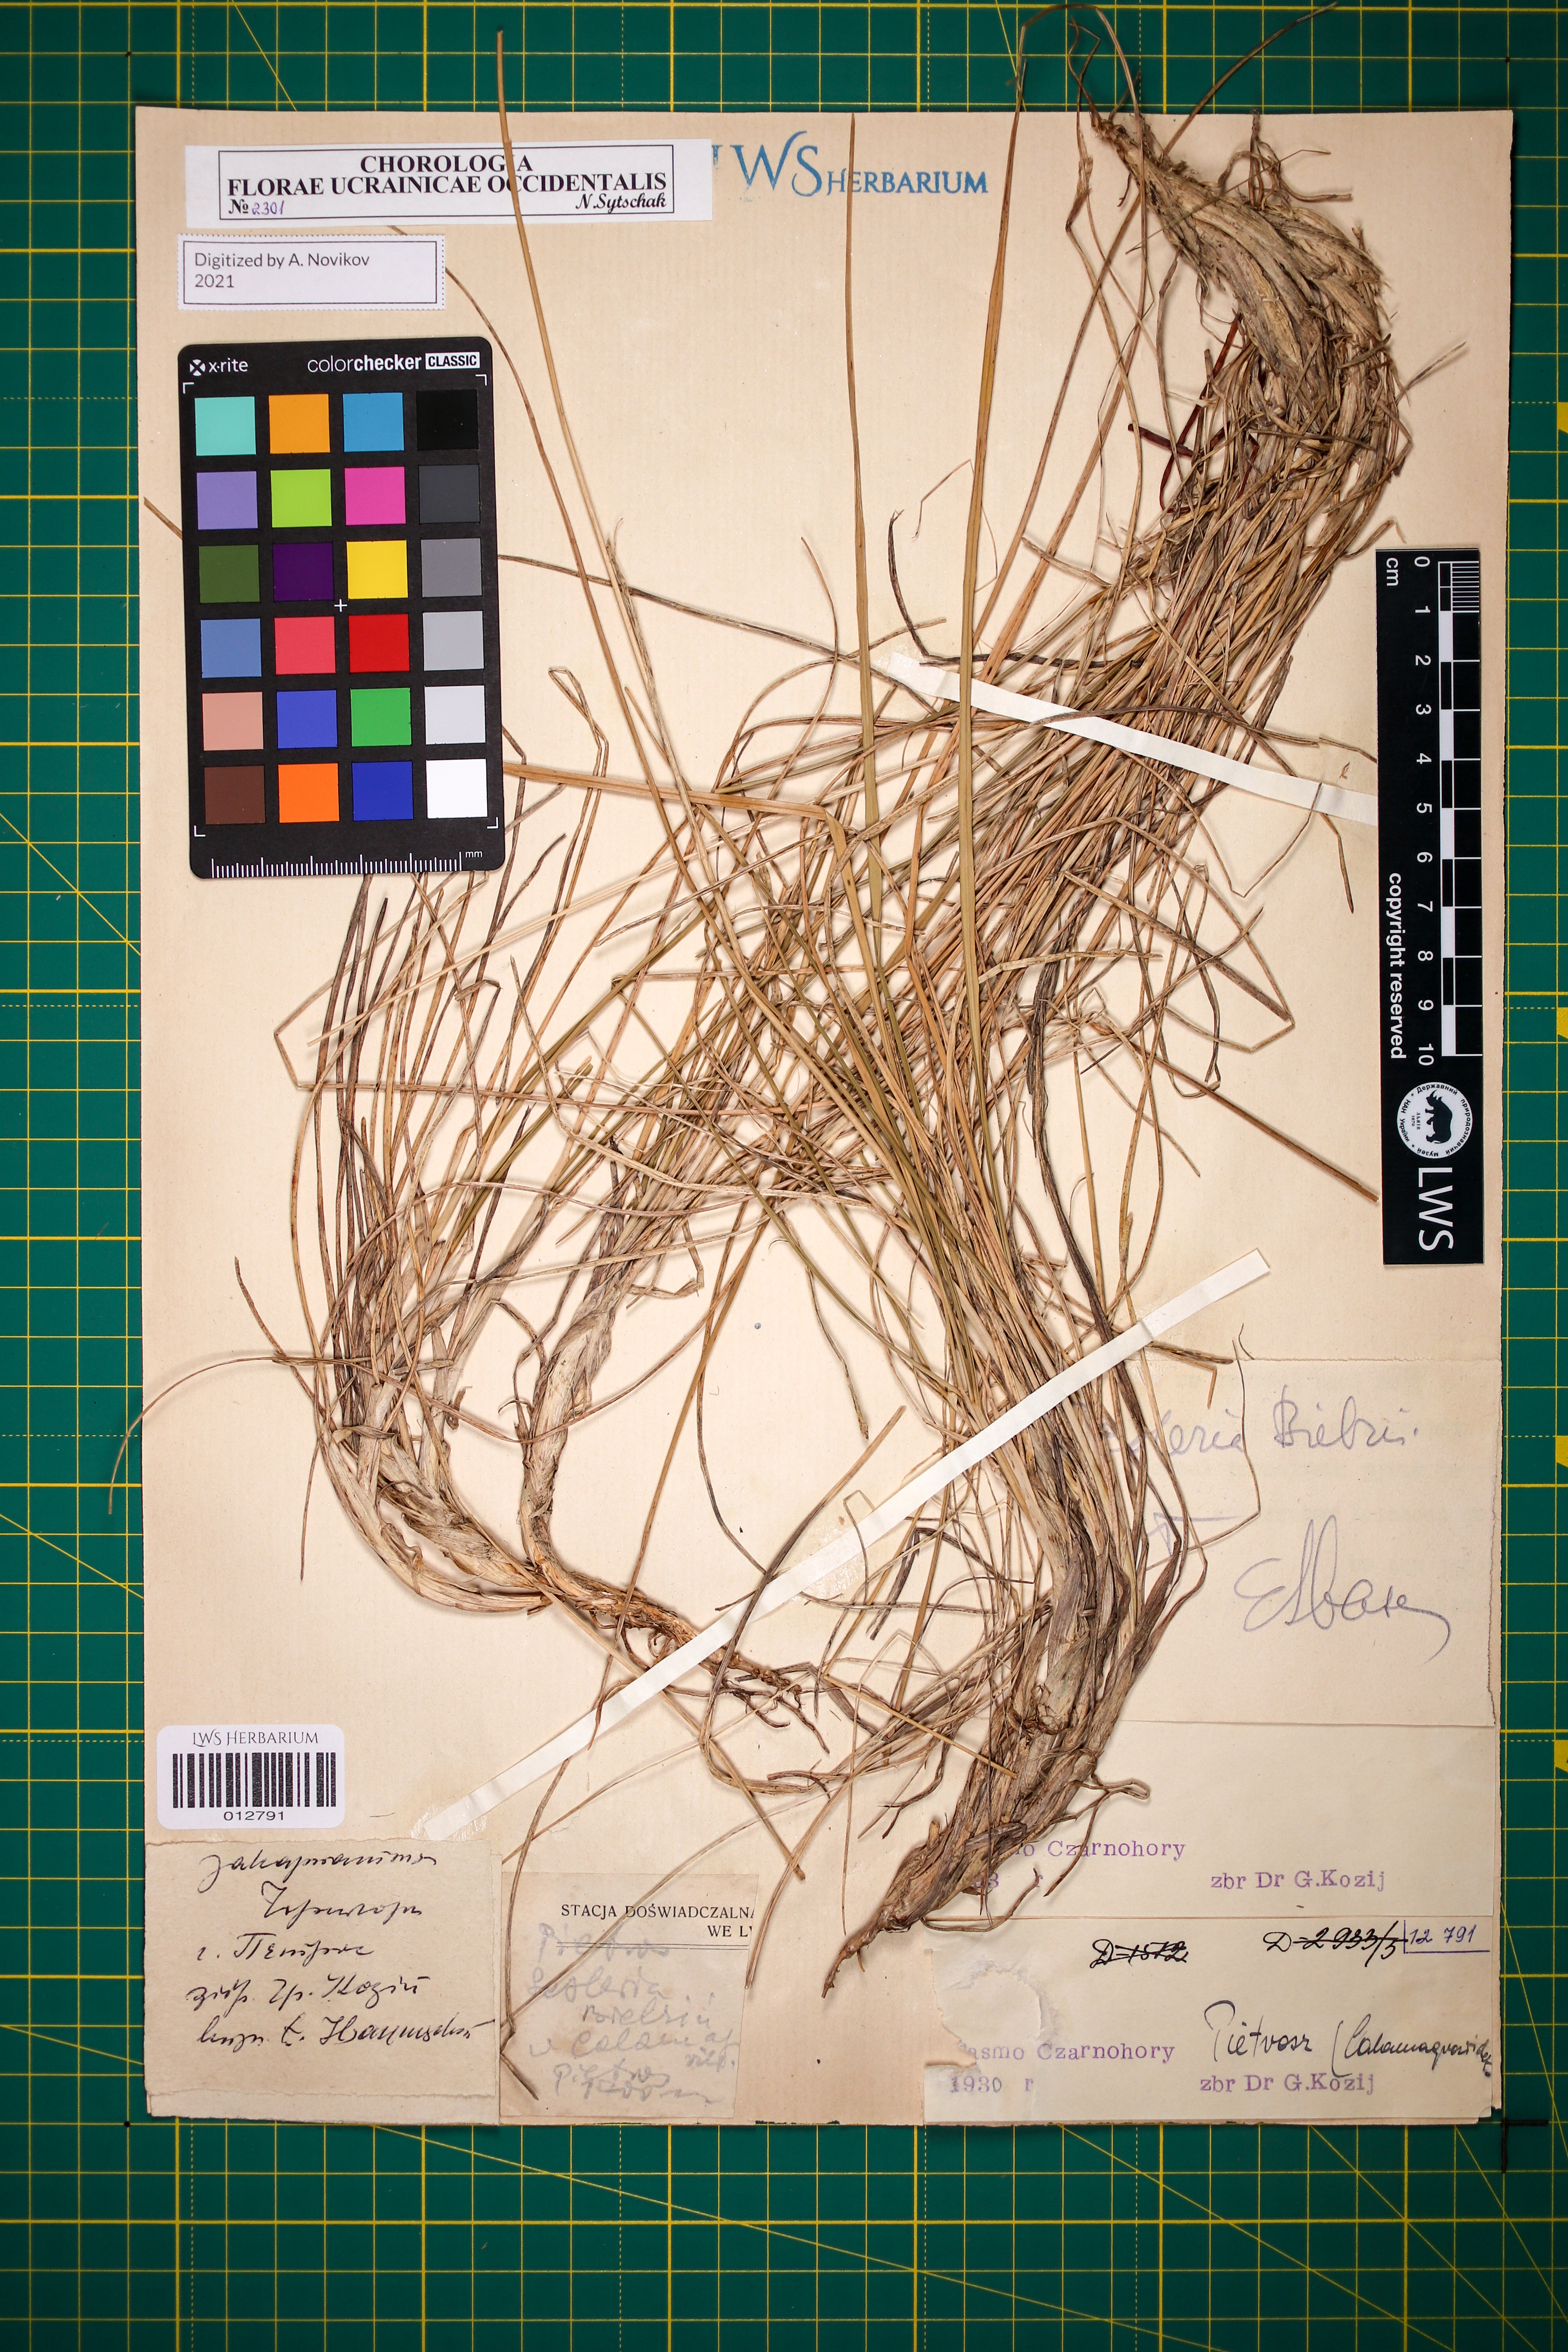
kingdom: Plantae
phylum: Tracheophyta
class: Liliopsida
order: Poales
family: Poaceae
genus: Sesleria
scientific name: Sesleria bielzii
